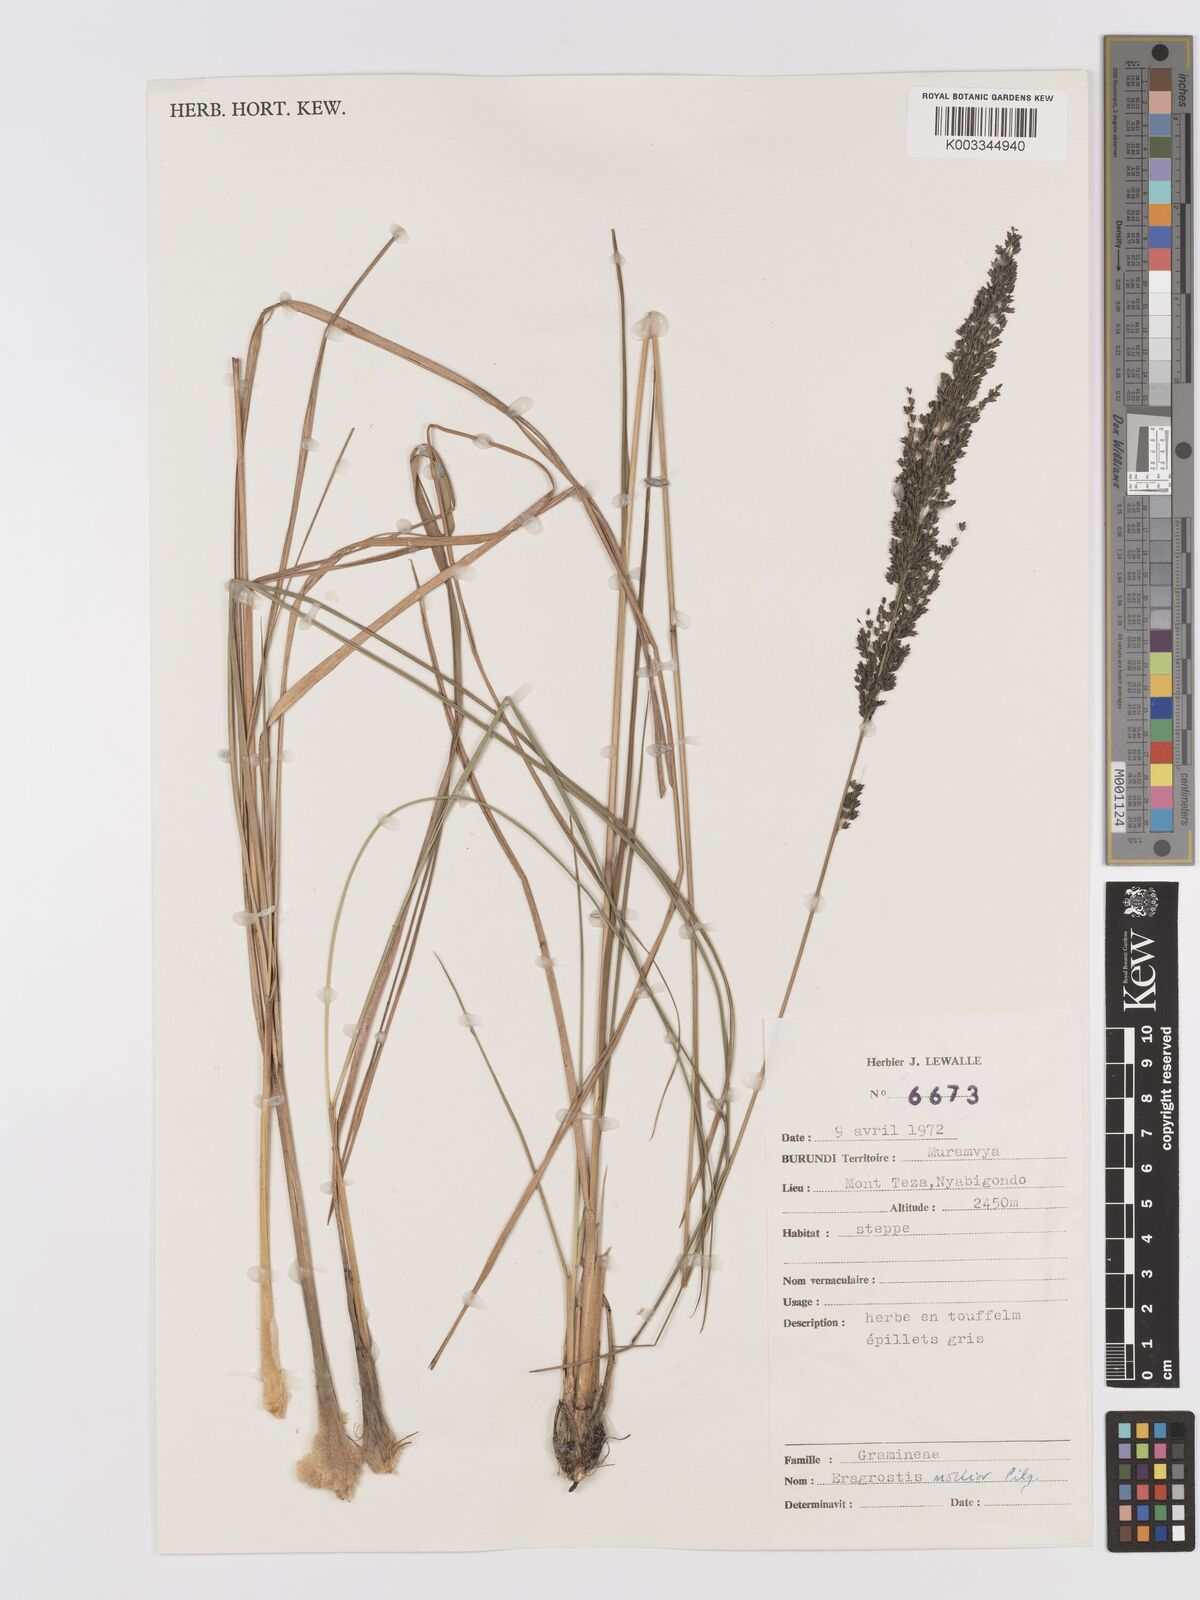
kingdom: Plantae
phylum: Tracheophyta
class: Liliopsida
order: Poales
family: Poaceae
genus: Eragrostis
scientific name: Eragrostis mollior
